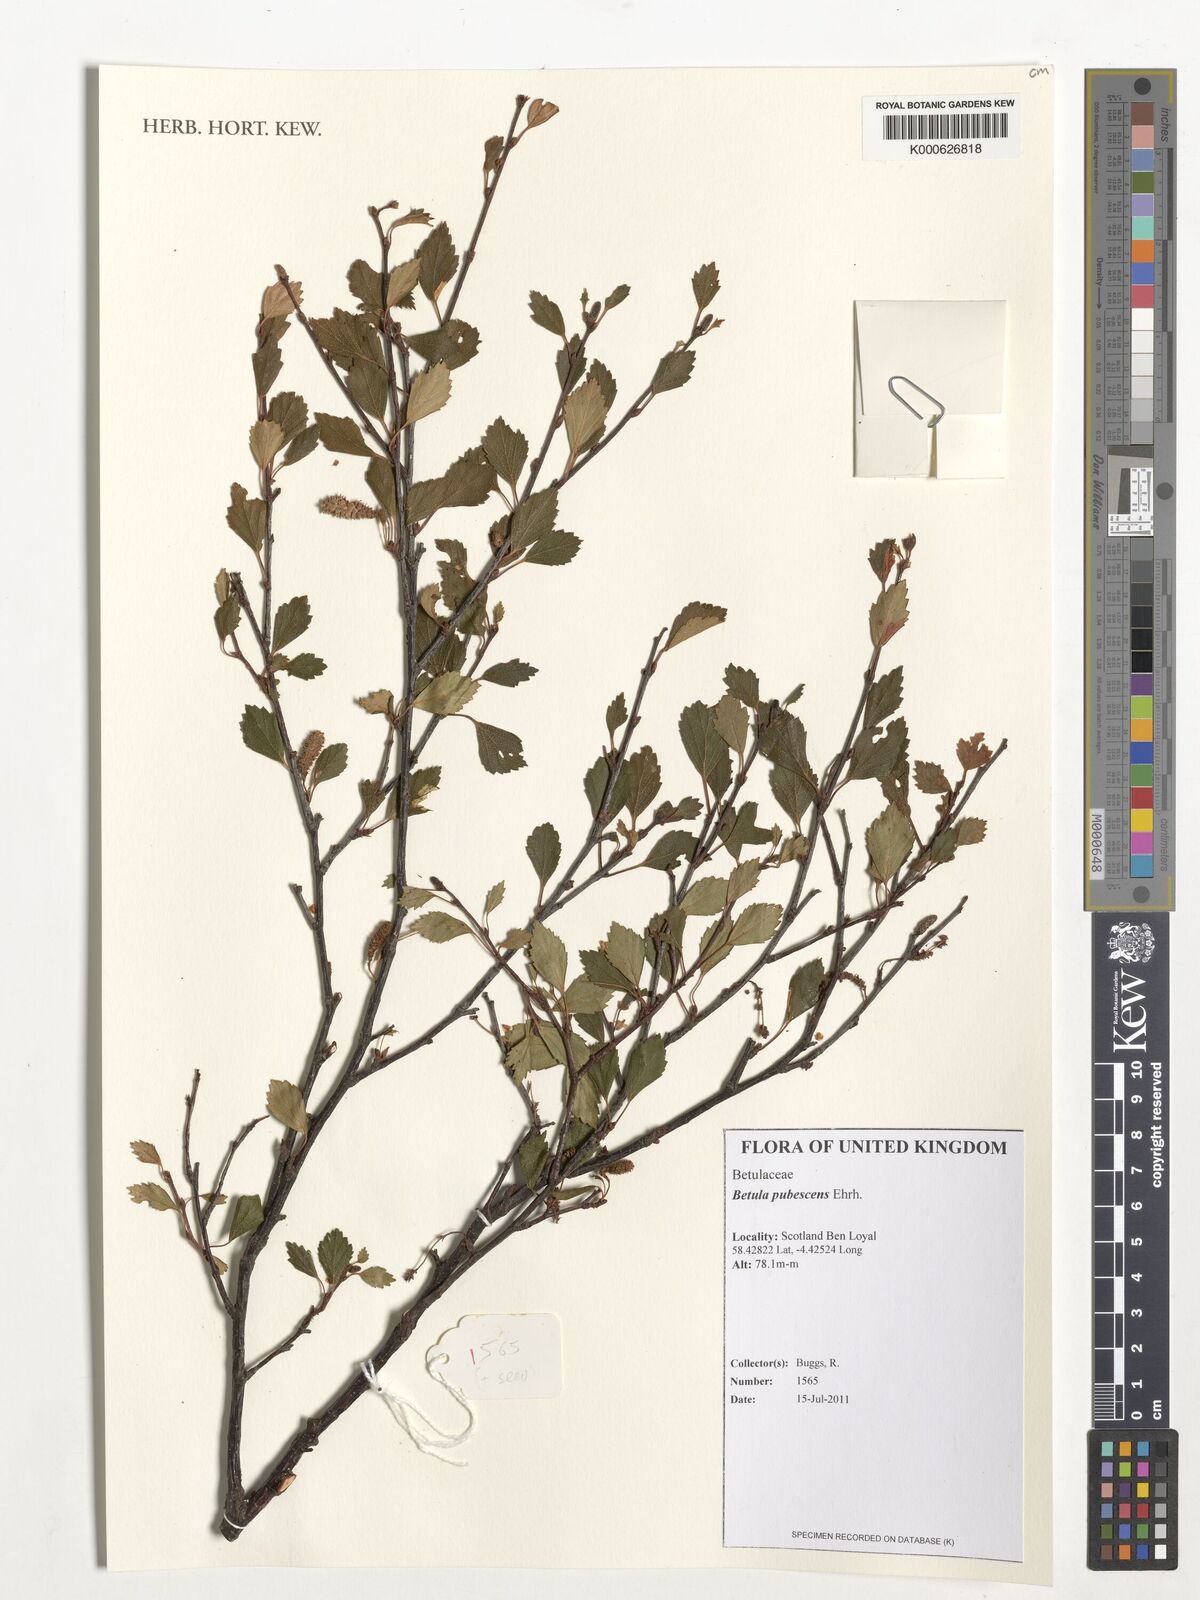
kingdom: Plantae
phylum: Tracheophyta
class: Magnoliopsida
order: Fagales
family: Betulaceae
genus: Betula
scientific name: Betula pubescens
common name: Downy birch
